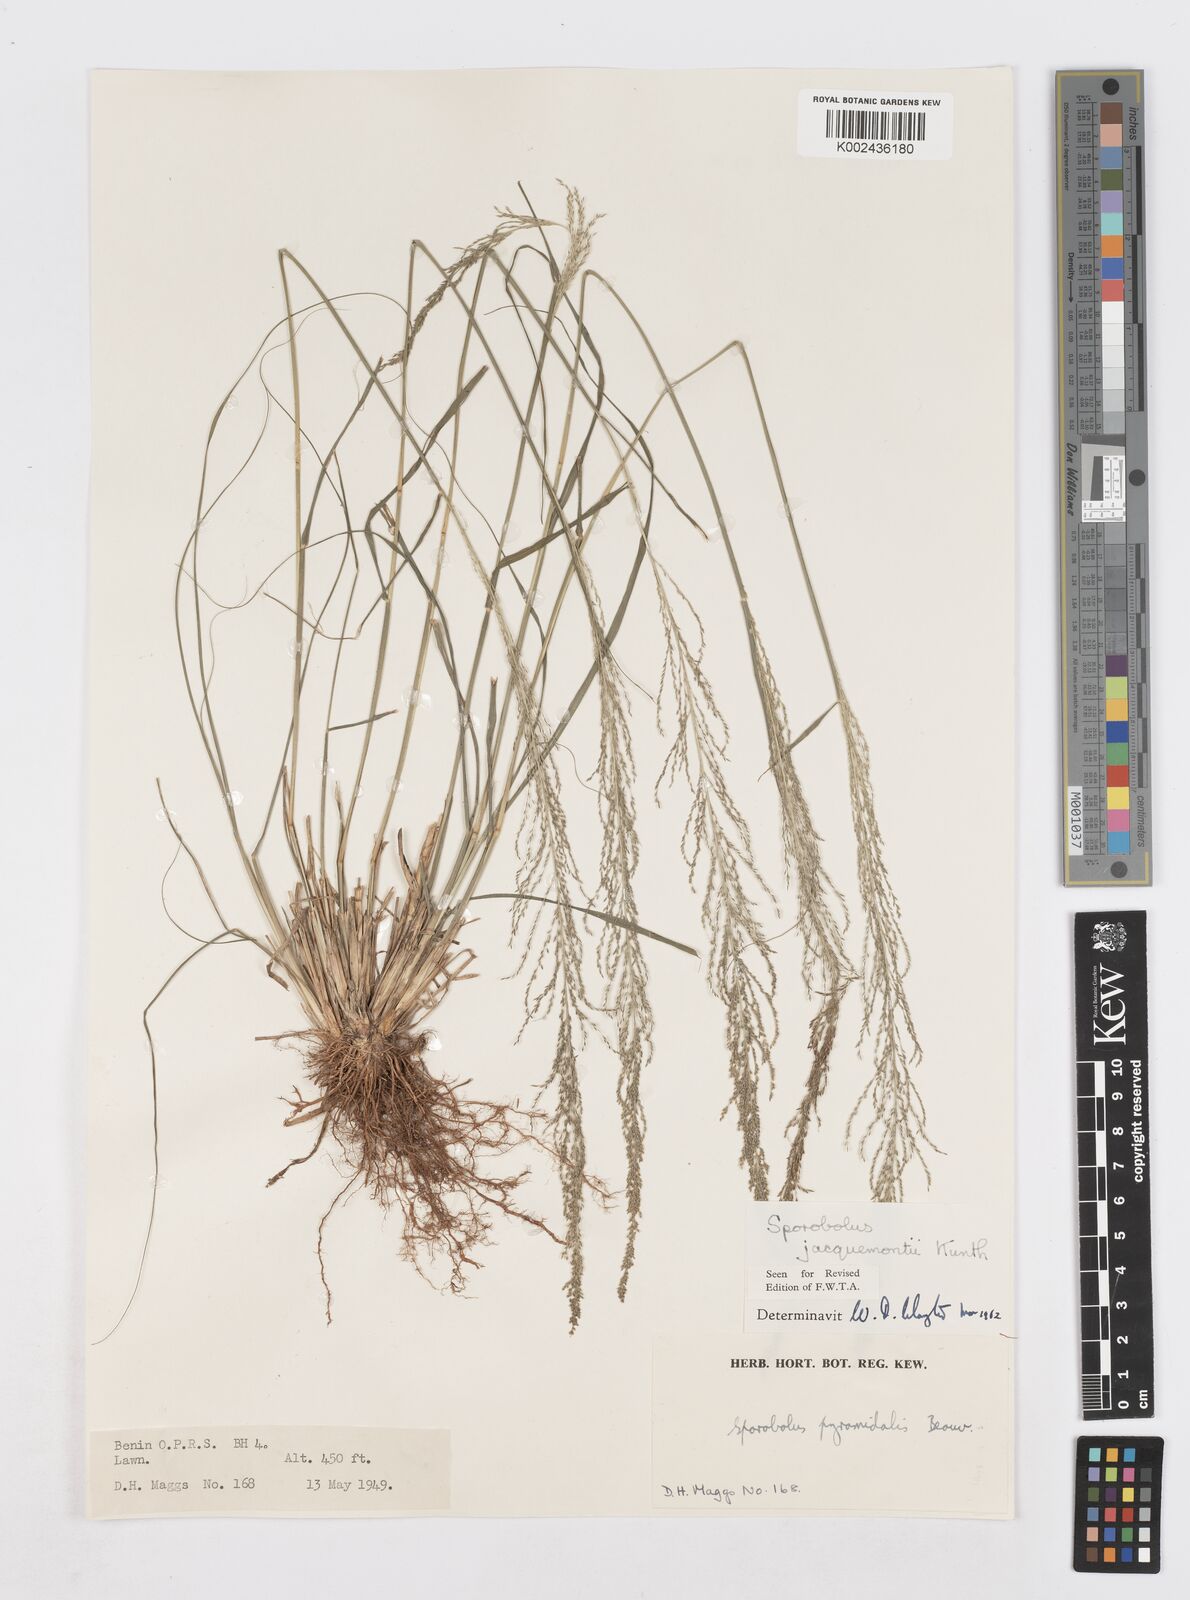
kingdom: Plantae
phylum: Tracheophyta
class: Liliopsida
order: Poales
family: Poaceae
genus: Sporobolus
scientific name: Sporobolus pyramidalis
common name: West indian dropseed
